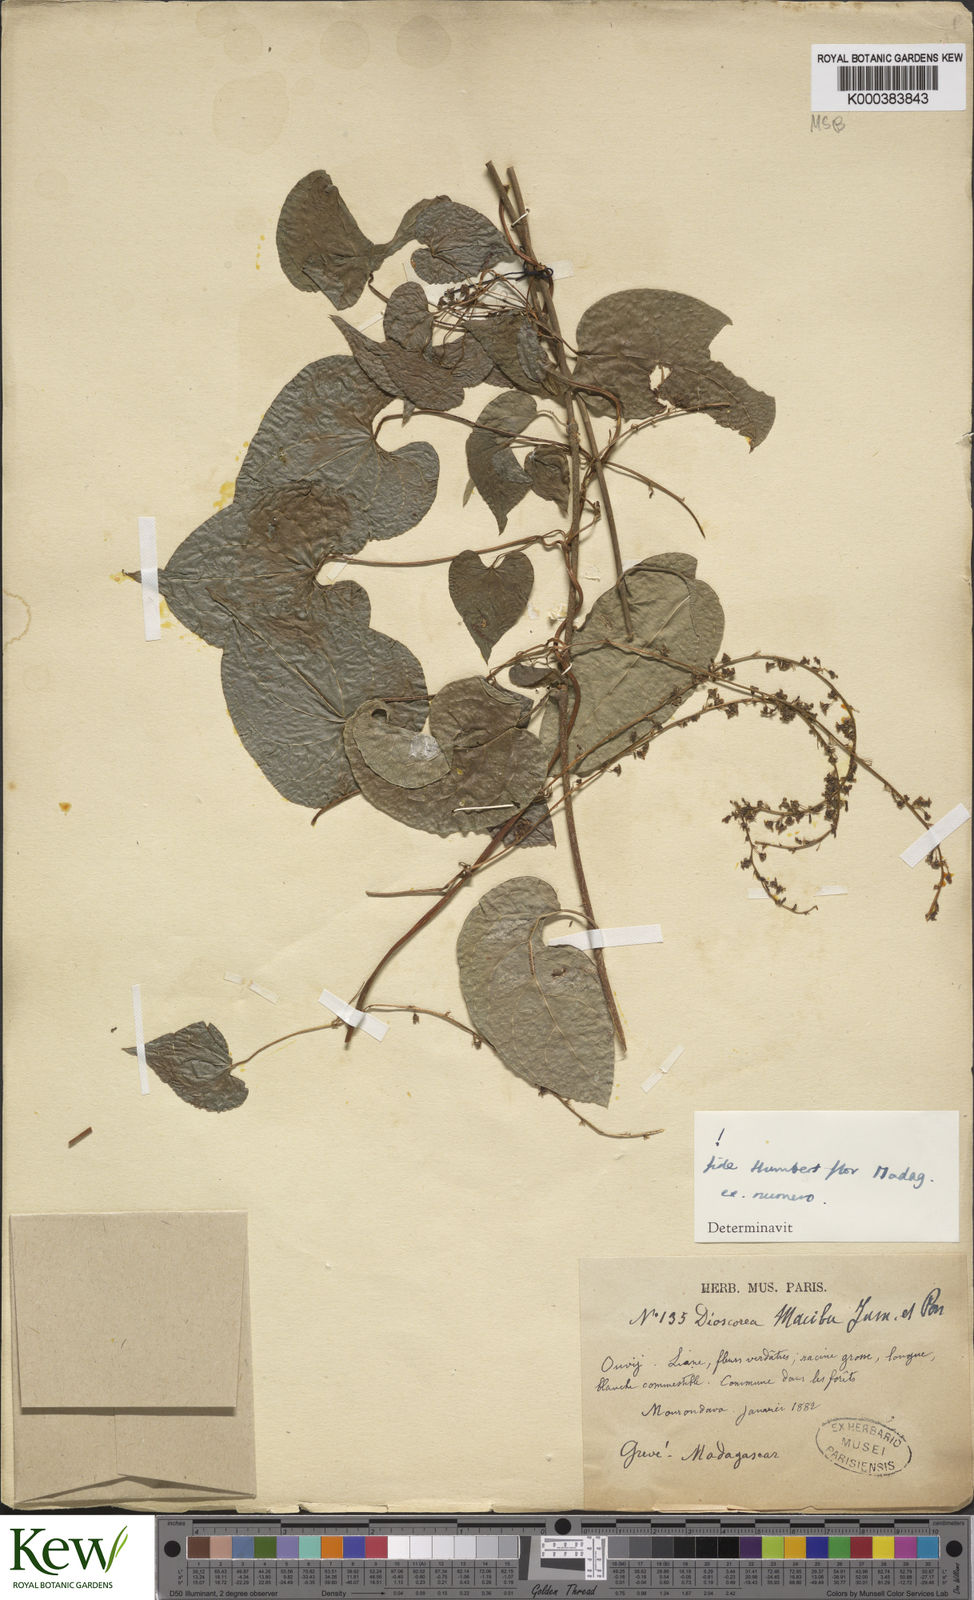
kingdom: Plantae
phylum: Tracheophyta
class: Liliopsida
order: Dioscoreales
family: Dioscoreaceae
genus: Dioscorea
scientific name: Dioscorea
